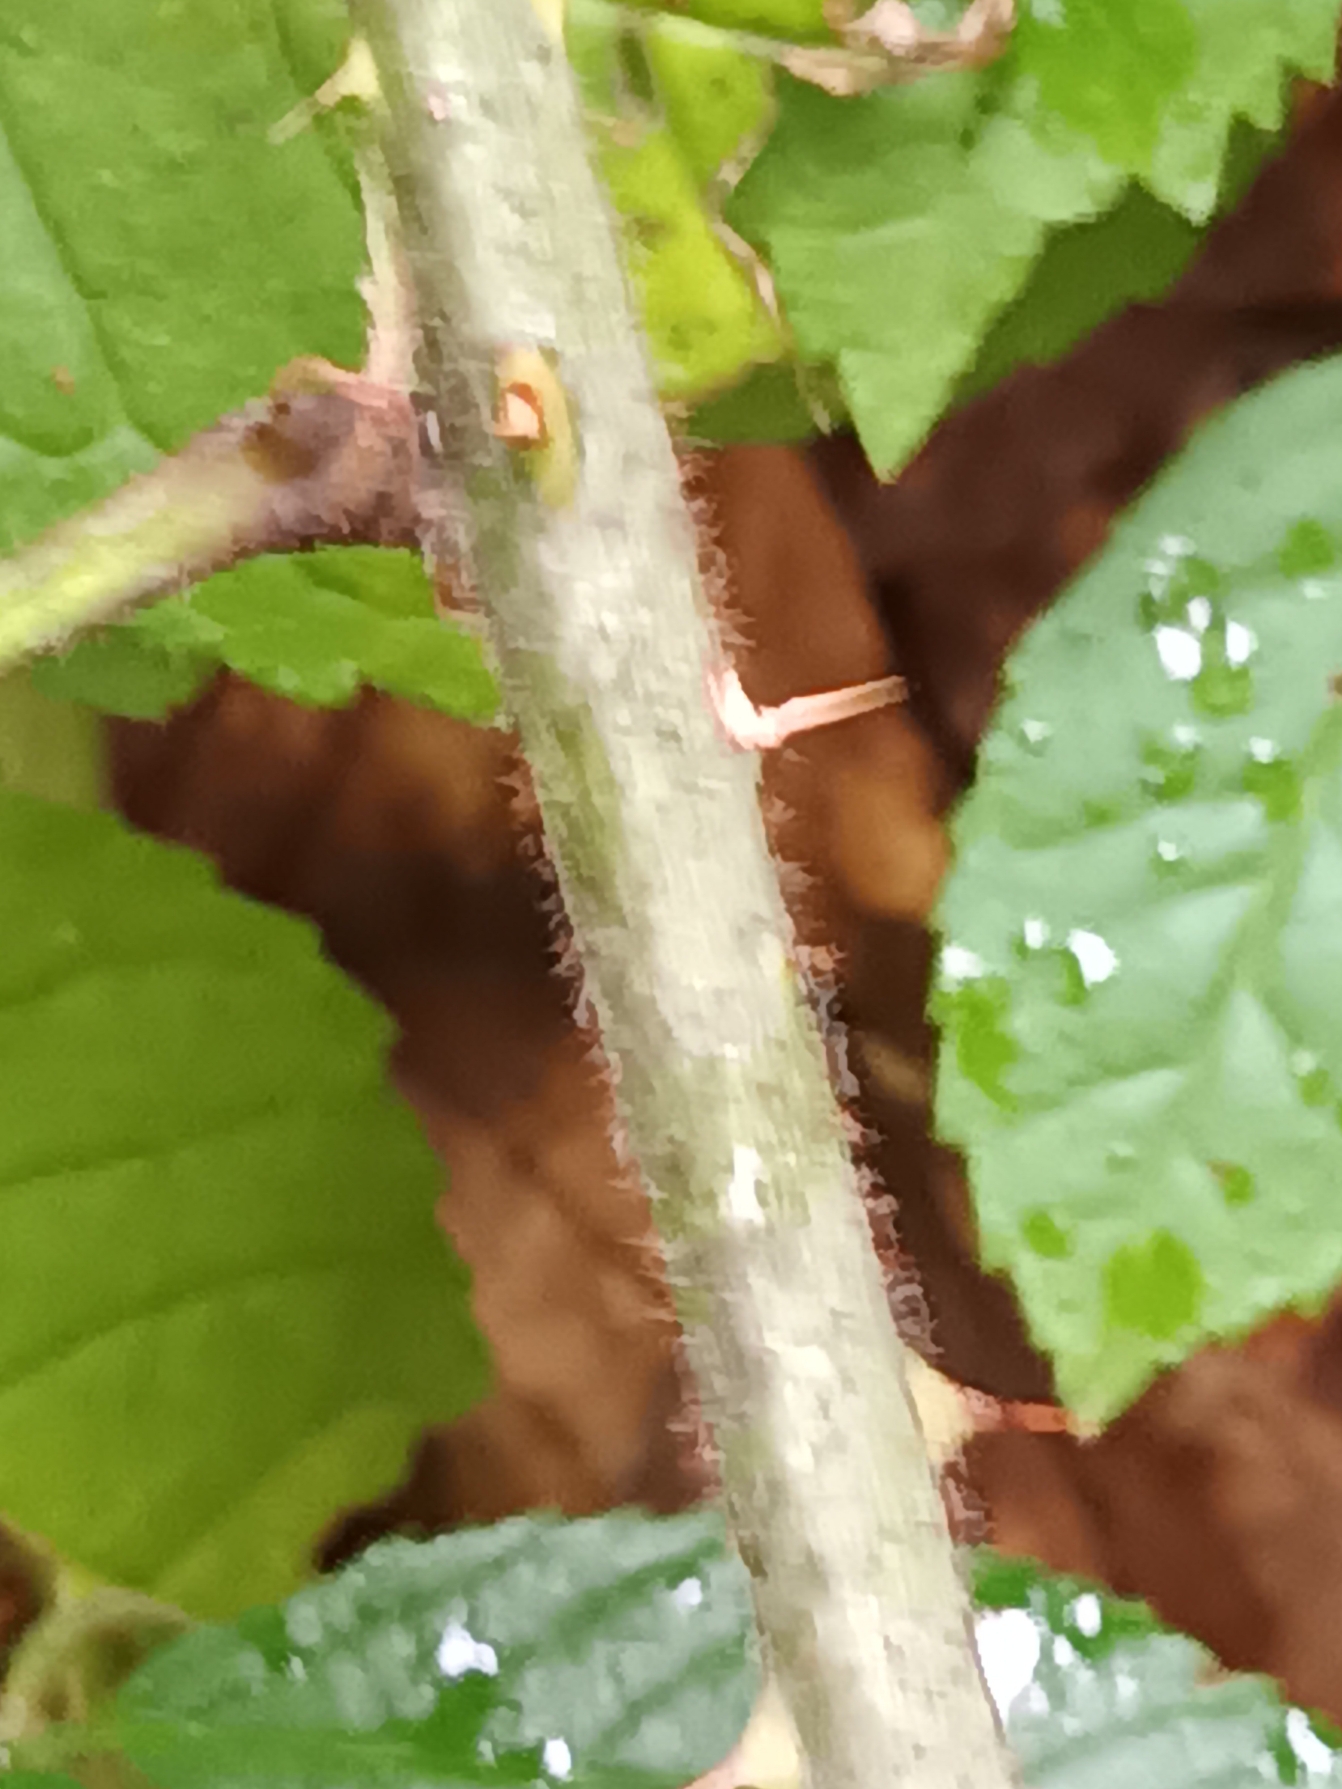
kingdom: Plantae
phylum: Tracheophyta
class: Magnoliopsida
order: Rosales
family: Rosaceae
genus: Rubus
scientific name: Rubus radula
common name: Rasperu brombær
